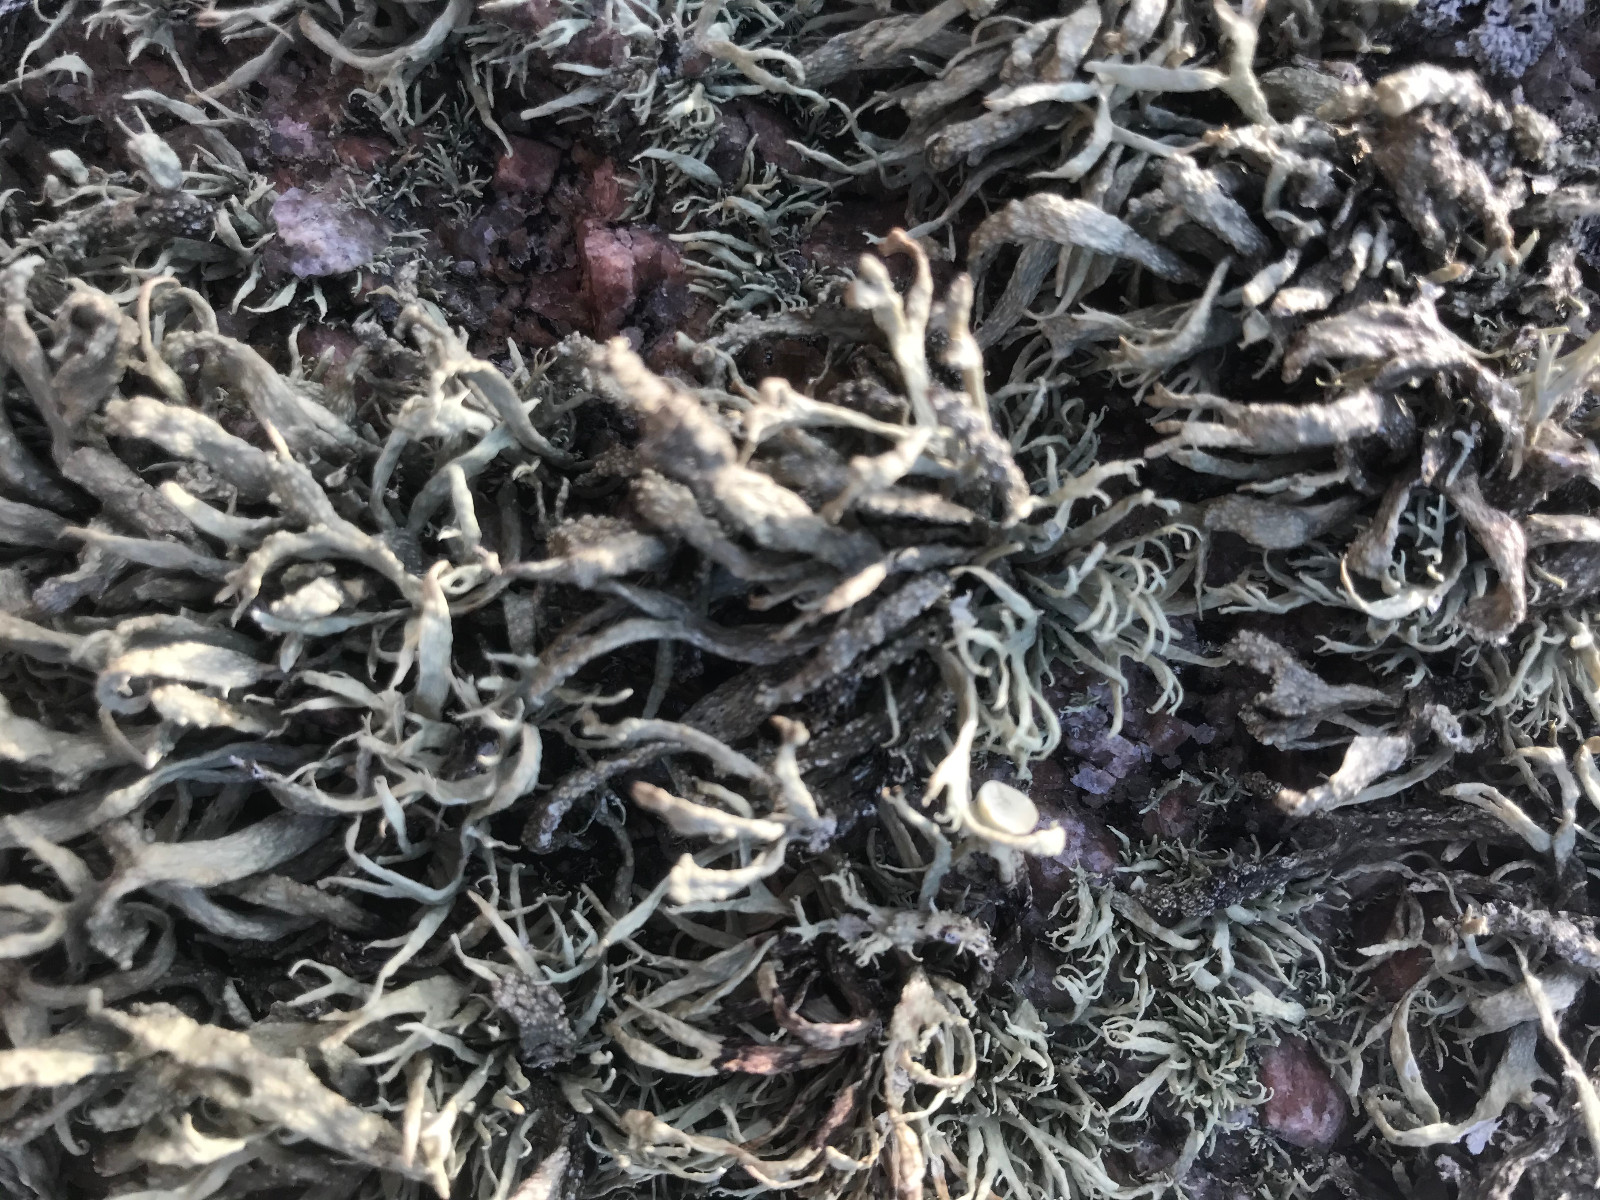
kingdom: Fungi
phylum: Ascomycota
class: Lecanoromycetes
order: Lecanorales
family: Ramalinaceae
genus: Ramalina
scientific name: Ramalina siliquosa
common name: klippe-grenlav
